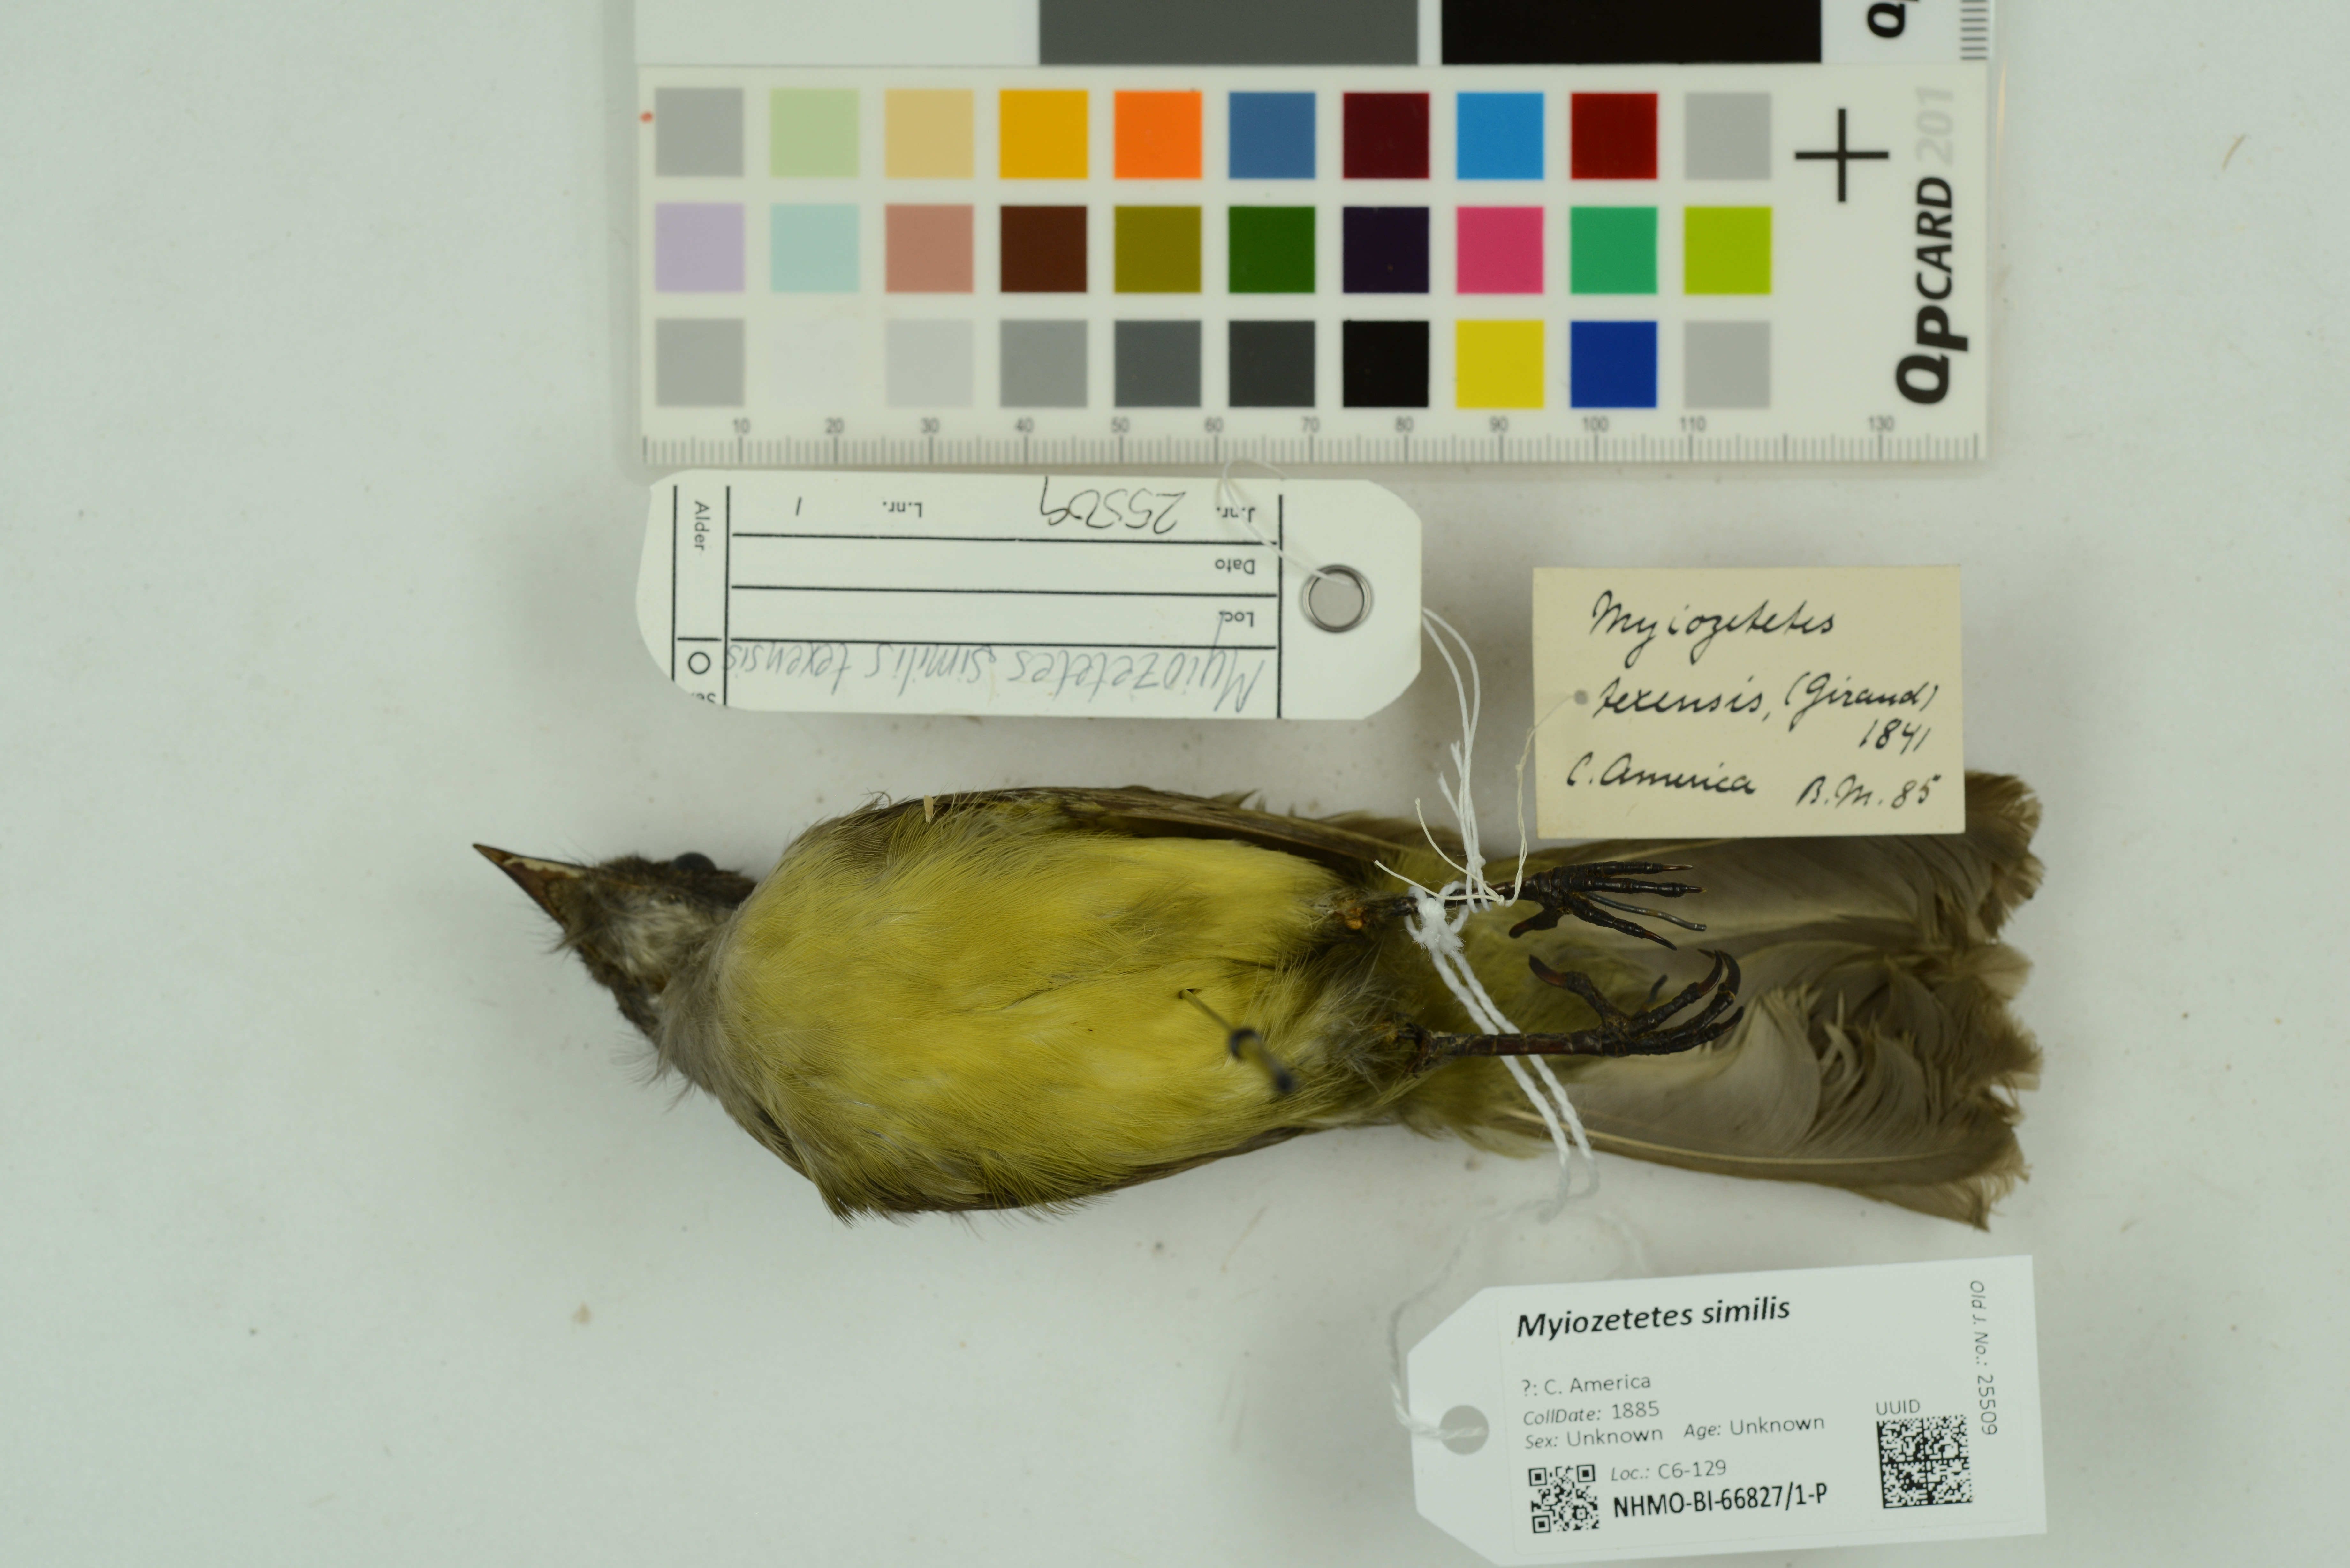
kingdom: Animalia
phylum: Chordata
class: Aves
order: Passeriformes
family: Tyrannidae
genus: Myiozetetes
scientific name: Myiozetetes similis
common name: Social flycatcher
